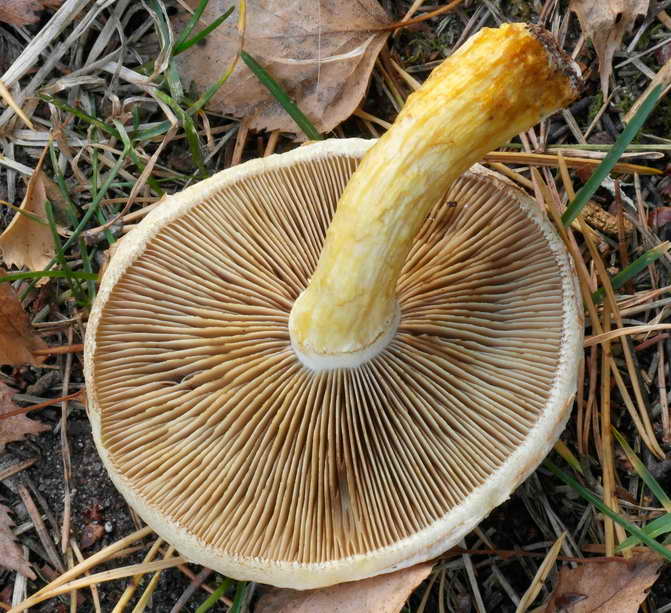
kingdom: Fungi
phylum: Basidiomycota
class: Agaricomycetes
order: Agaricales
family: Strophariaceae
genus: Pholiota
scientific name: Pholiota heteroclita
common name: duftende kæmpeskælhat
